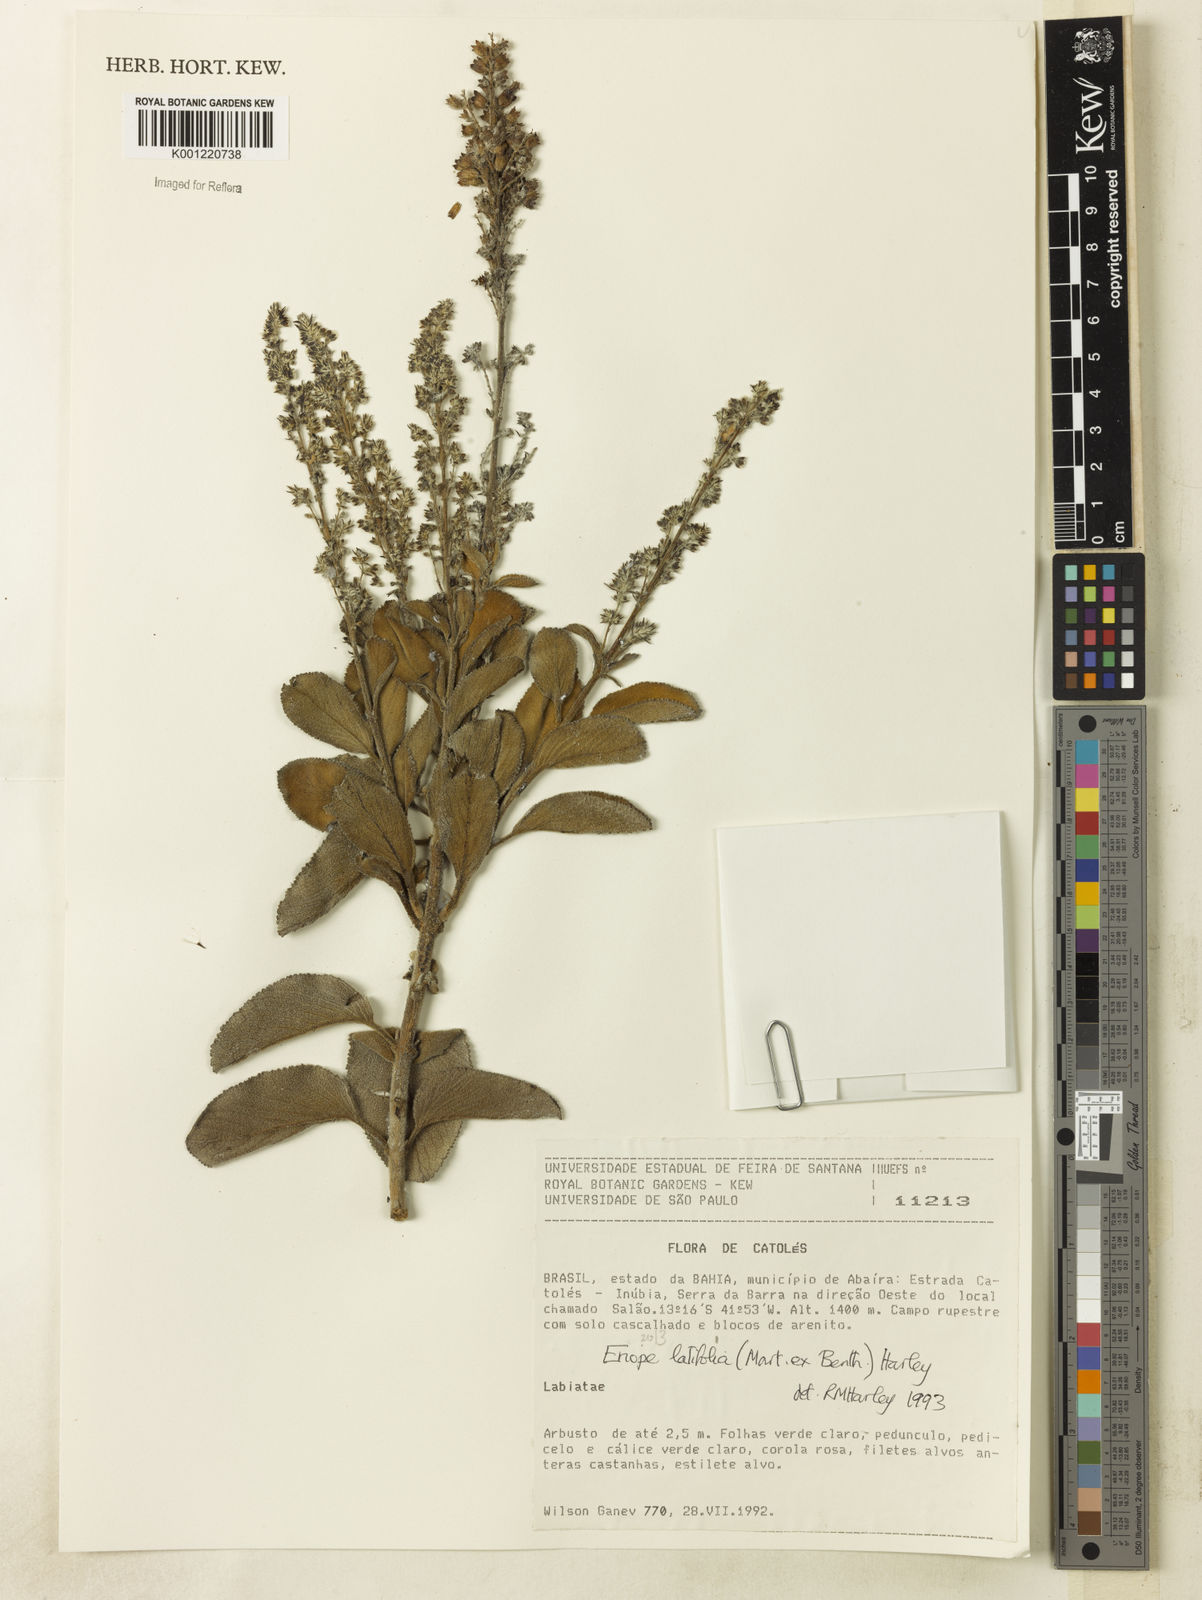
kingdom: Plantae
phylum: Tracheophyta
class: Magnoliopsida
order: Lamiales
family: Lamiaceae
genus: Eriope
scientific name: Eriope latifolia
